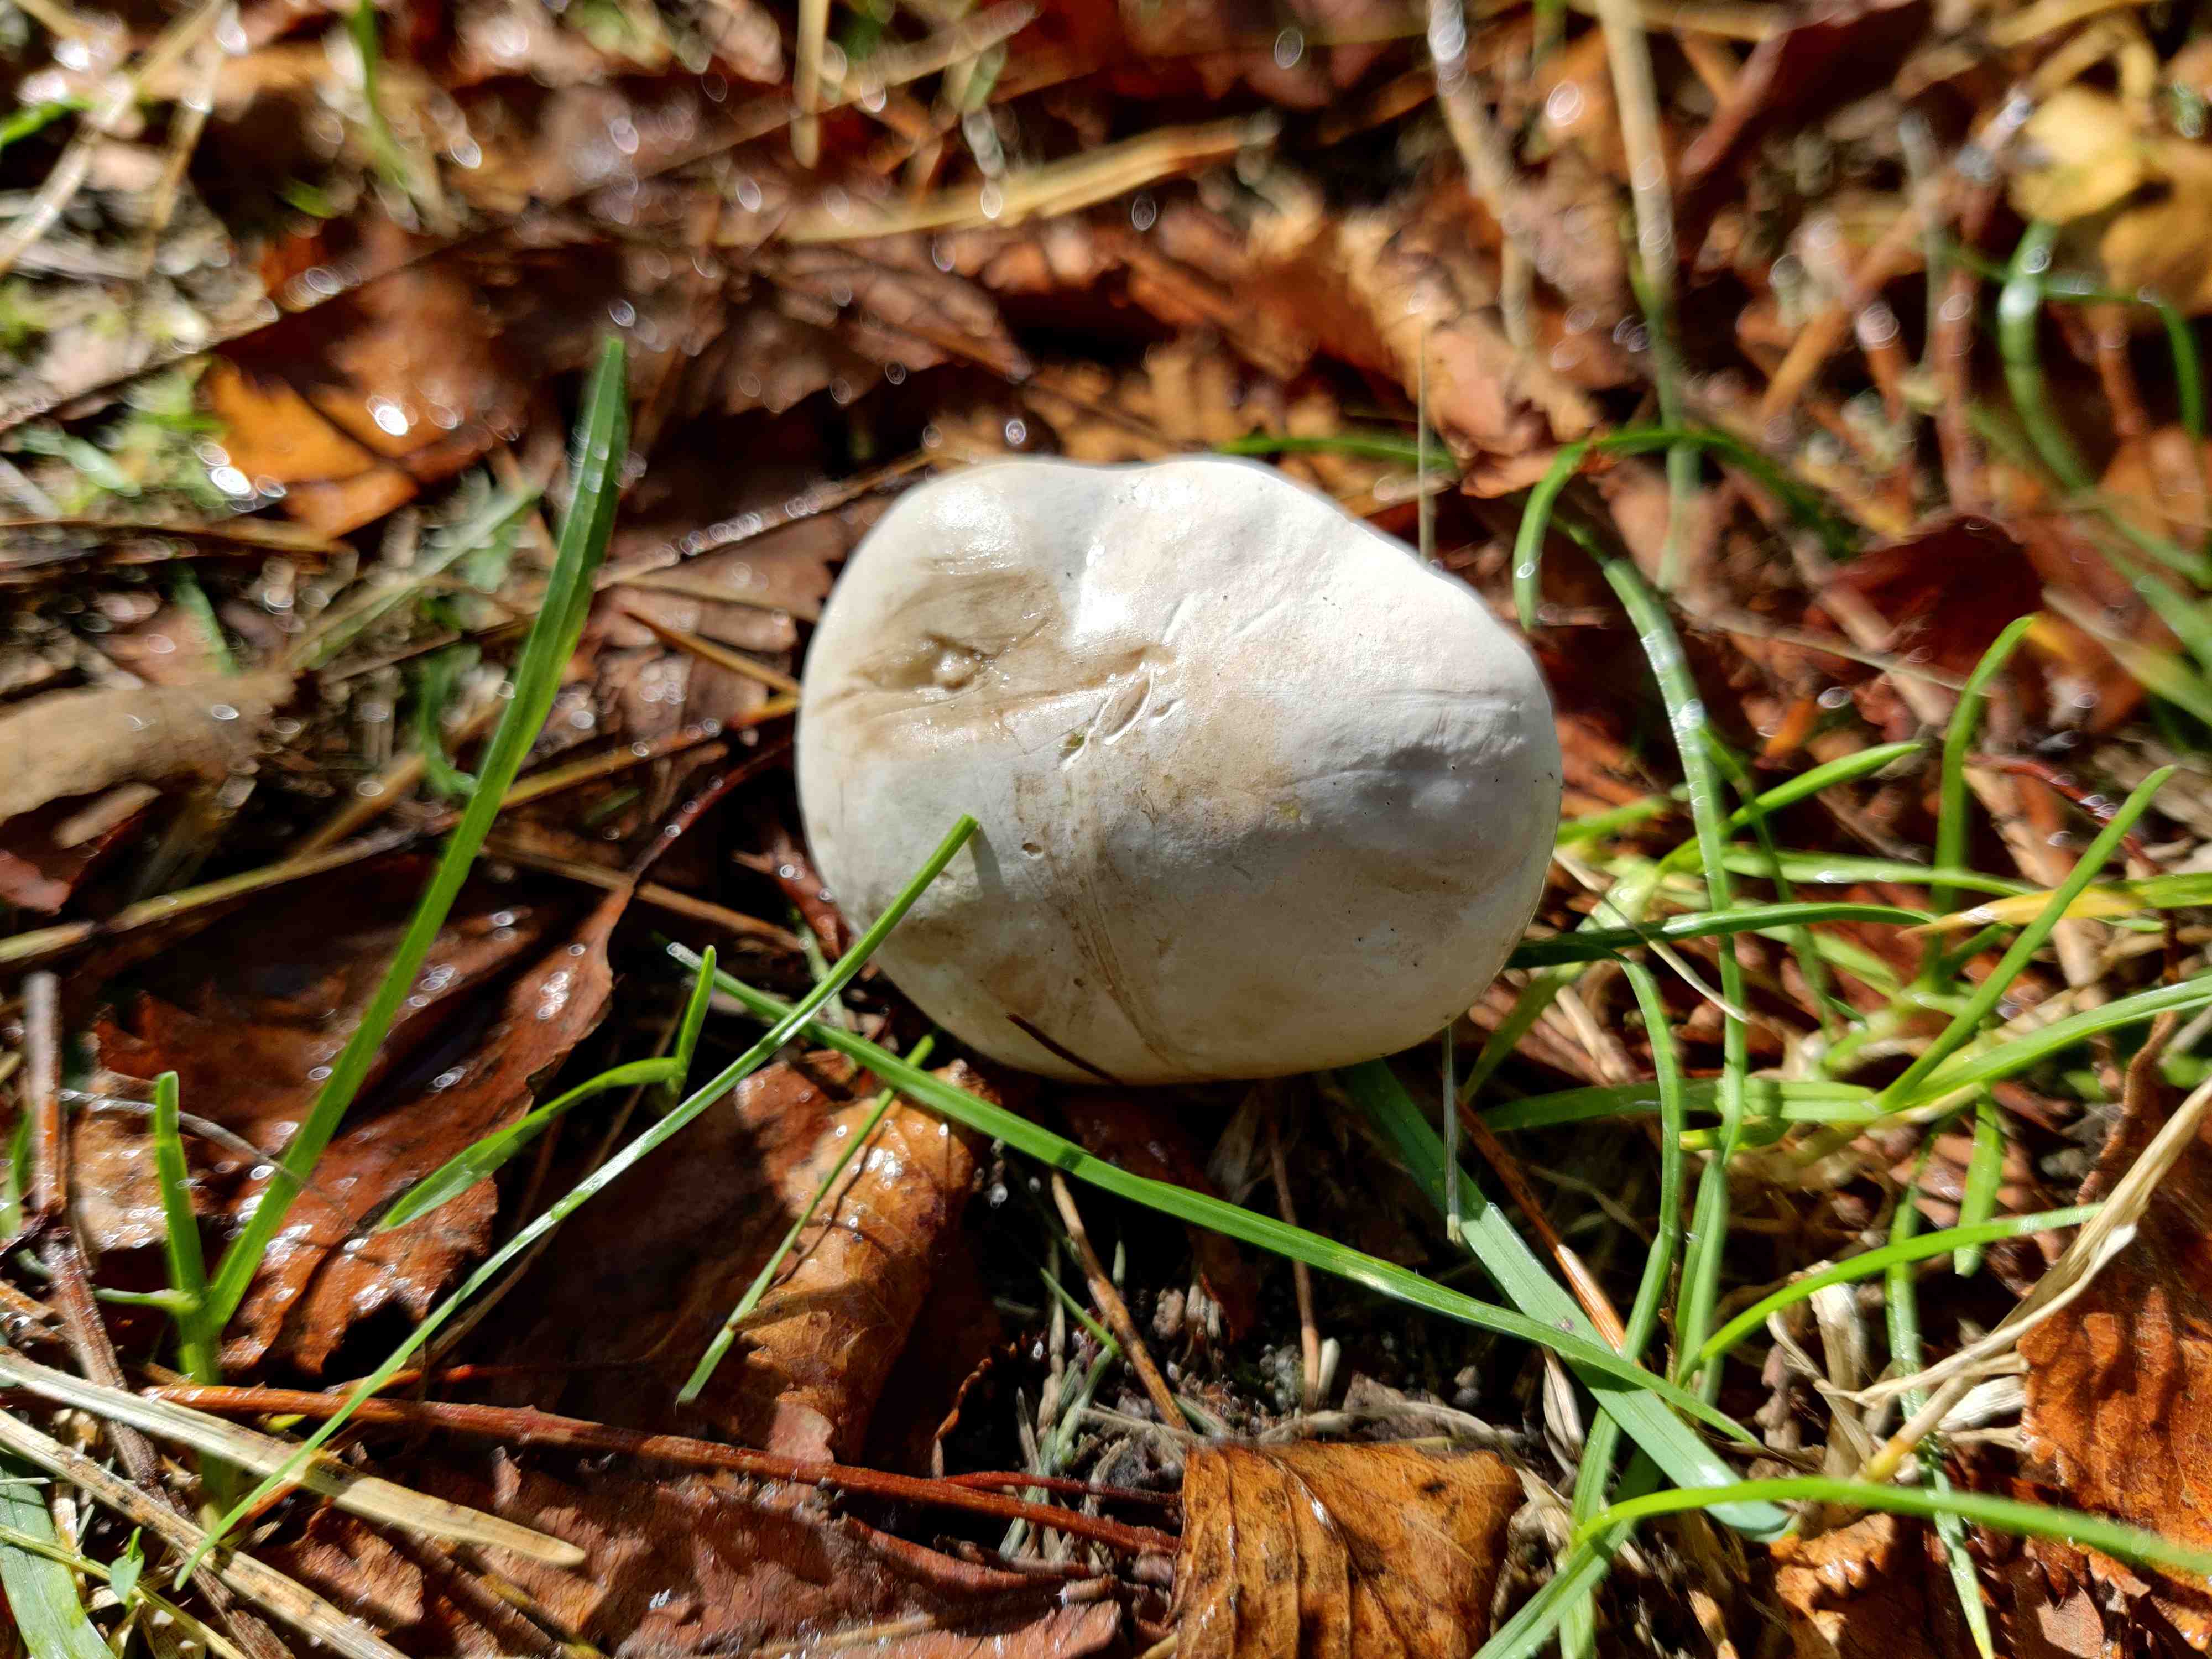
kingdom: Fungi
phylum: Basidiomycota
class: Agaricomycetes
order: Agaricales
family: Entolomataceae
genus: Clitopilus
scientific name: Clitopilus prunulus
